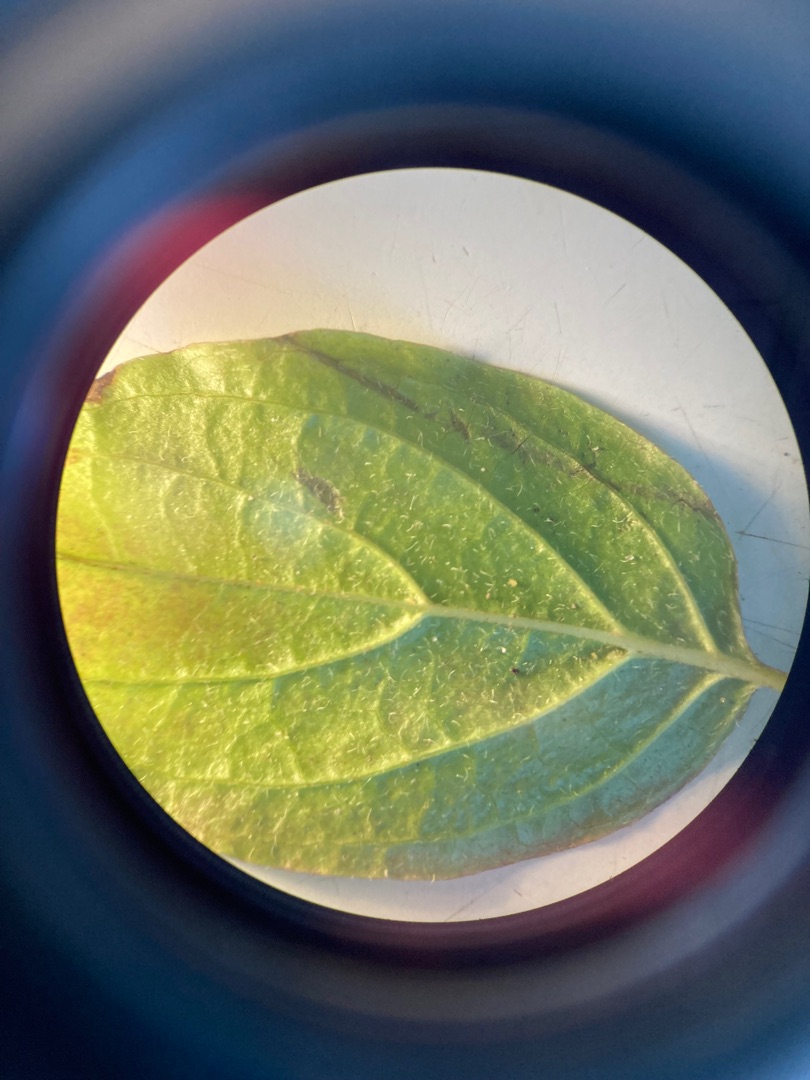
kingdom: Plantae
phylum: Tracheophyta
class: Magnoliopsida
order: Cornales
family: Cornaceae
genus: Cornus
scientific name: Cornus sanguinea
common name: Rød kornel
